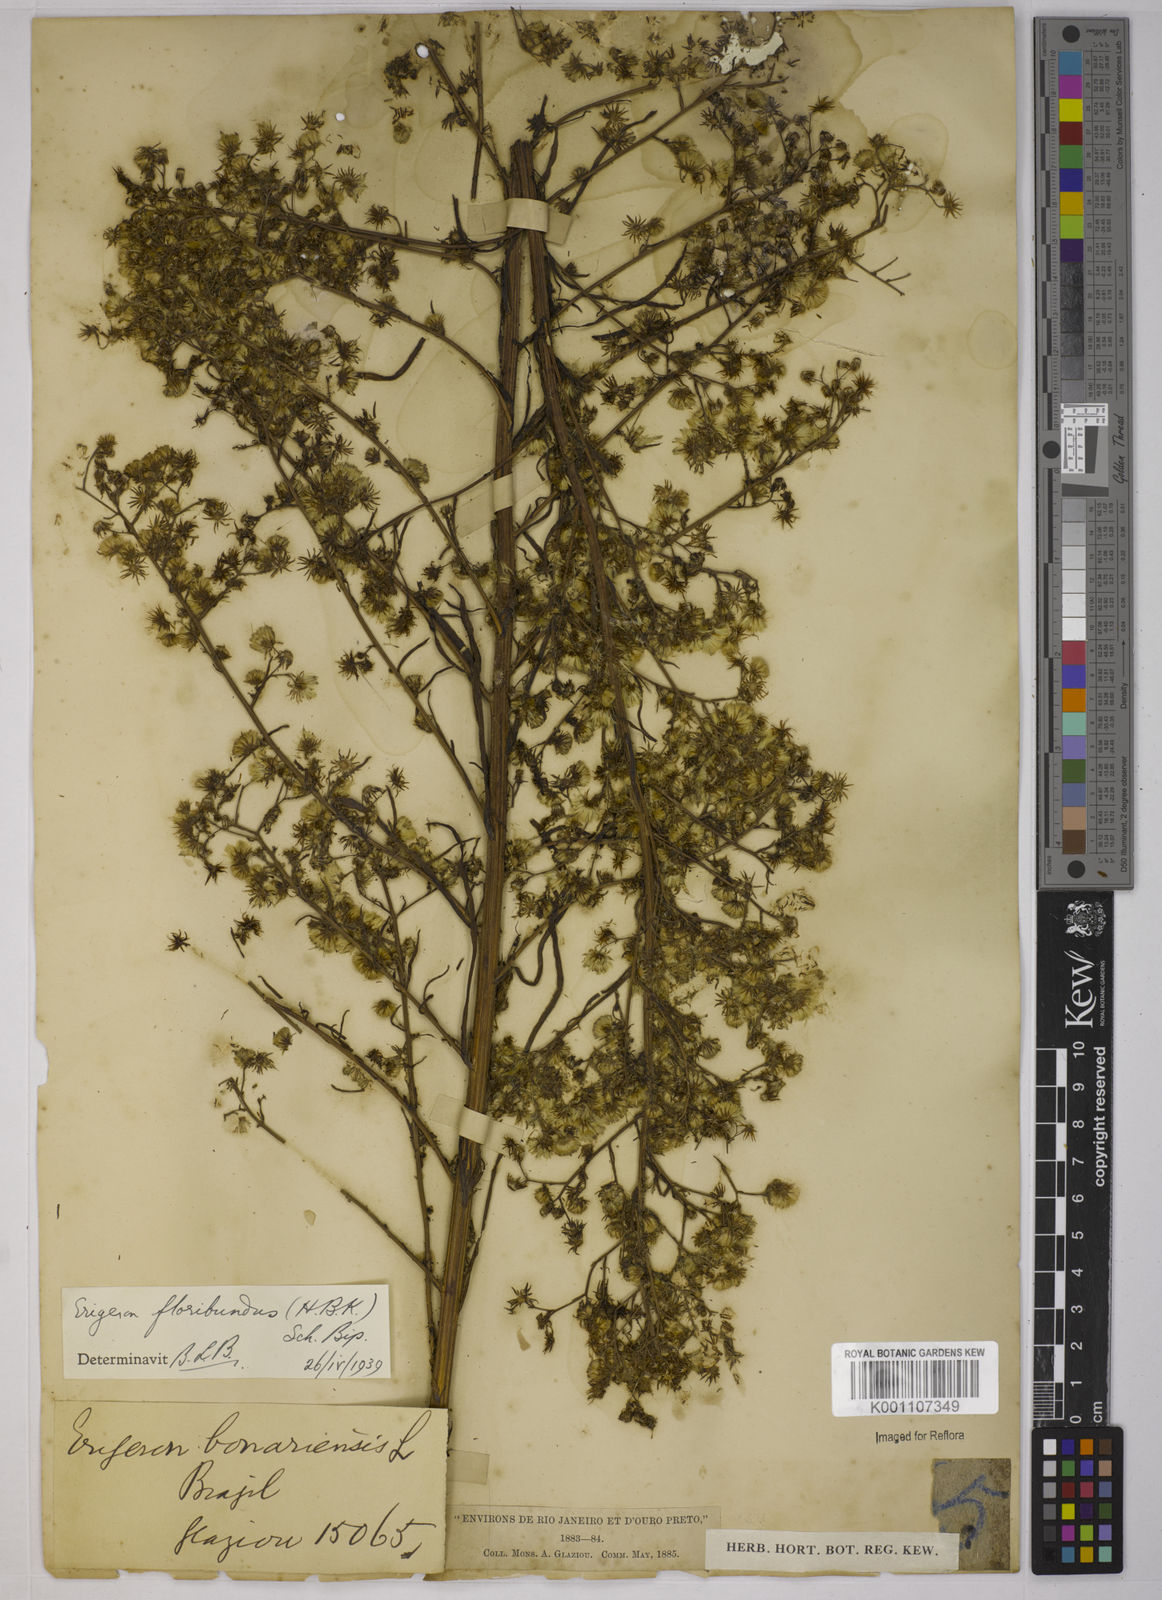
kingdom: Plantae
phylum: Tracheophyta
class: Magnoliopsida
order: Asterales
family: Asteraceae
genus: Erigeron
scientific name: Erigeron floribundus
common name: Bilbao fleabane
